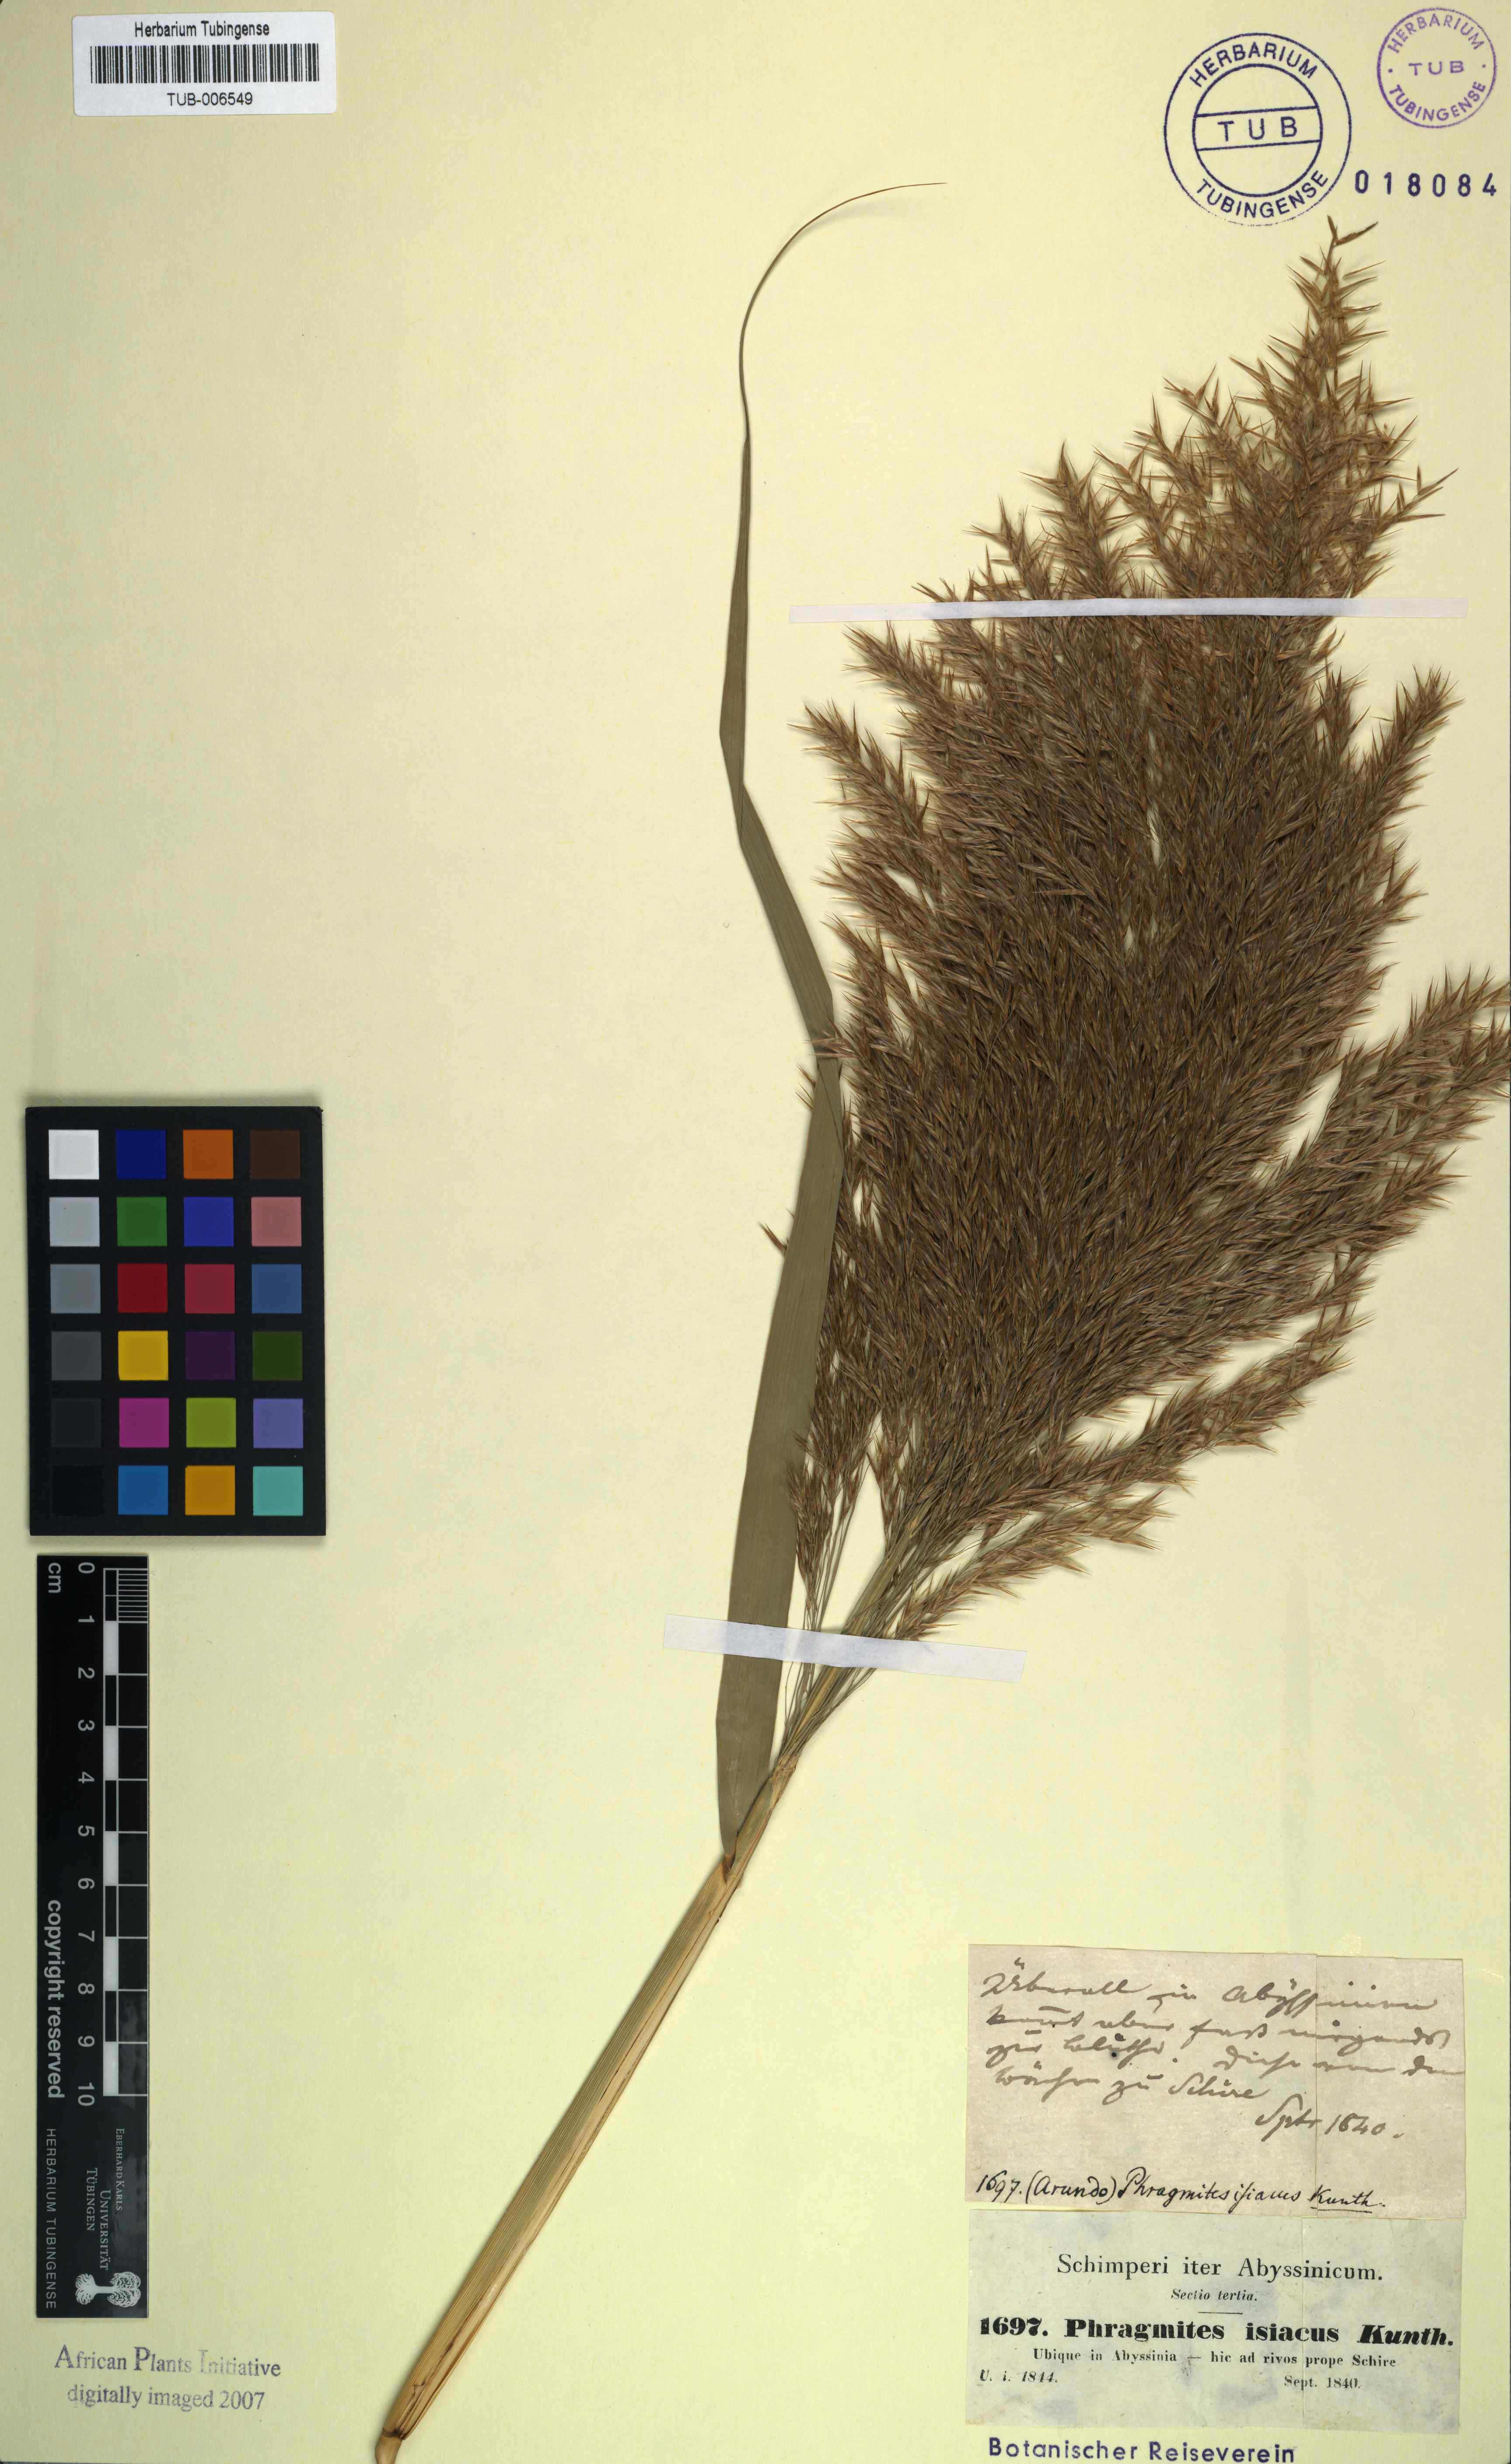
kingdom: Plantae
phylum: Tracheophyta
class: Liliopsida
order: Poales
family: Poaceae
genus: Phragmites
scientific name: Phragmites australis
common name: Common reed
